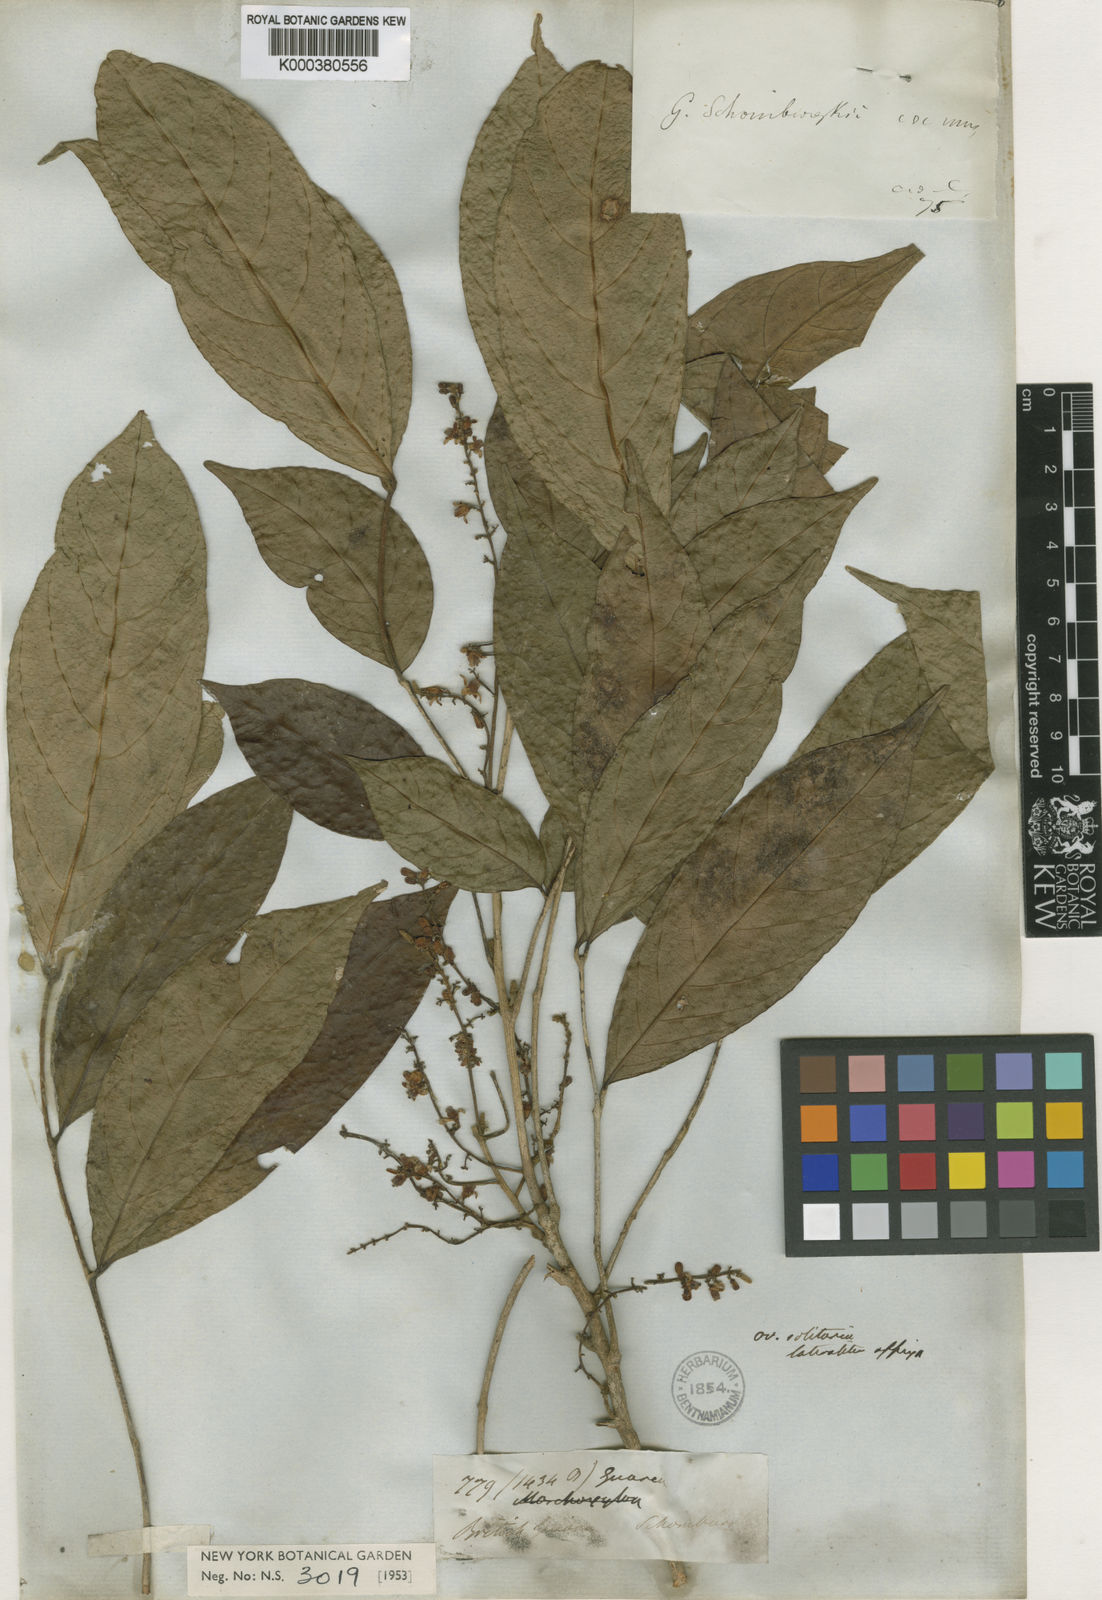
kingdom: Plantae
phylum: Tracheophyta
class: Magnoliopsida
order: Sapindales
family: Meliaceae
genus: Guarea
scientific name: Guarea glabra
